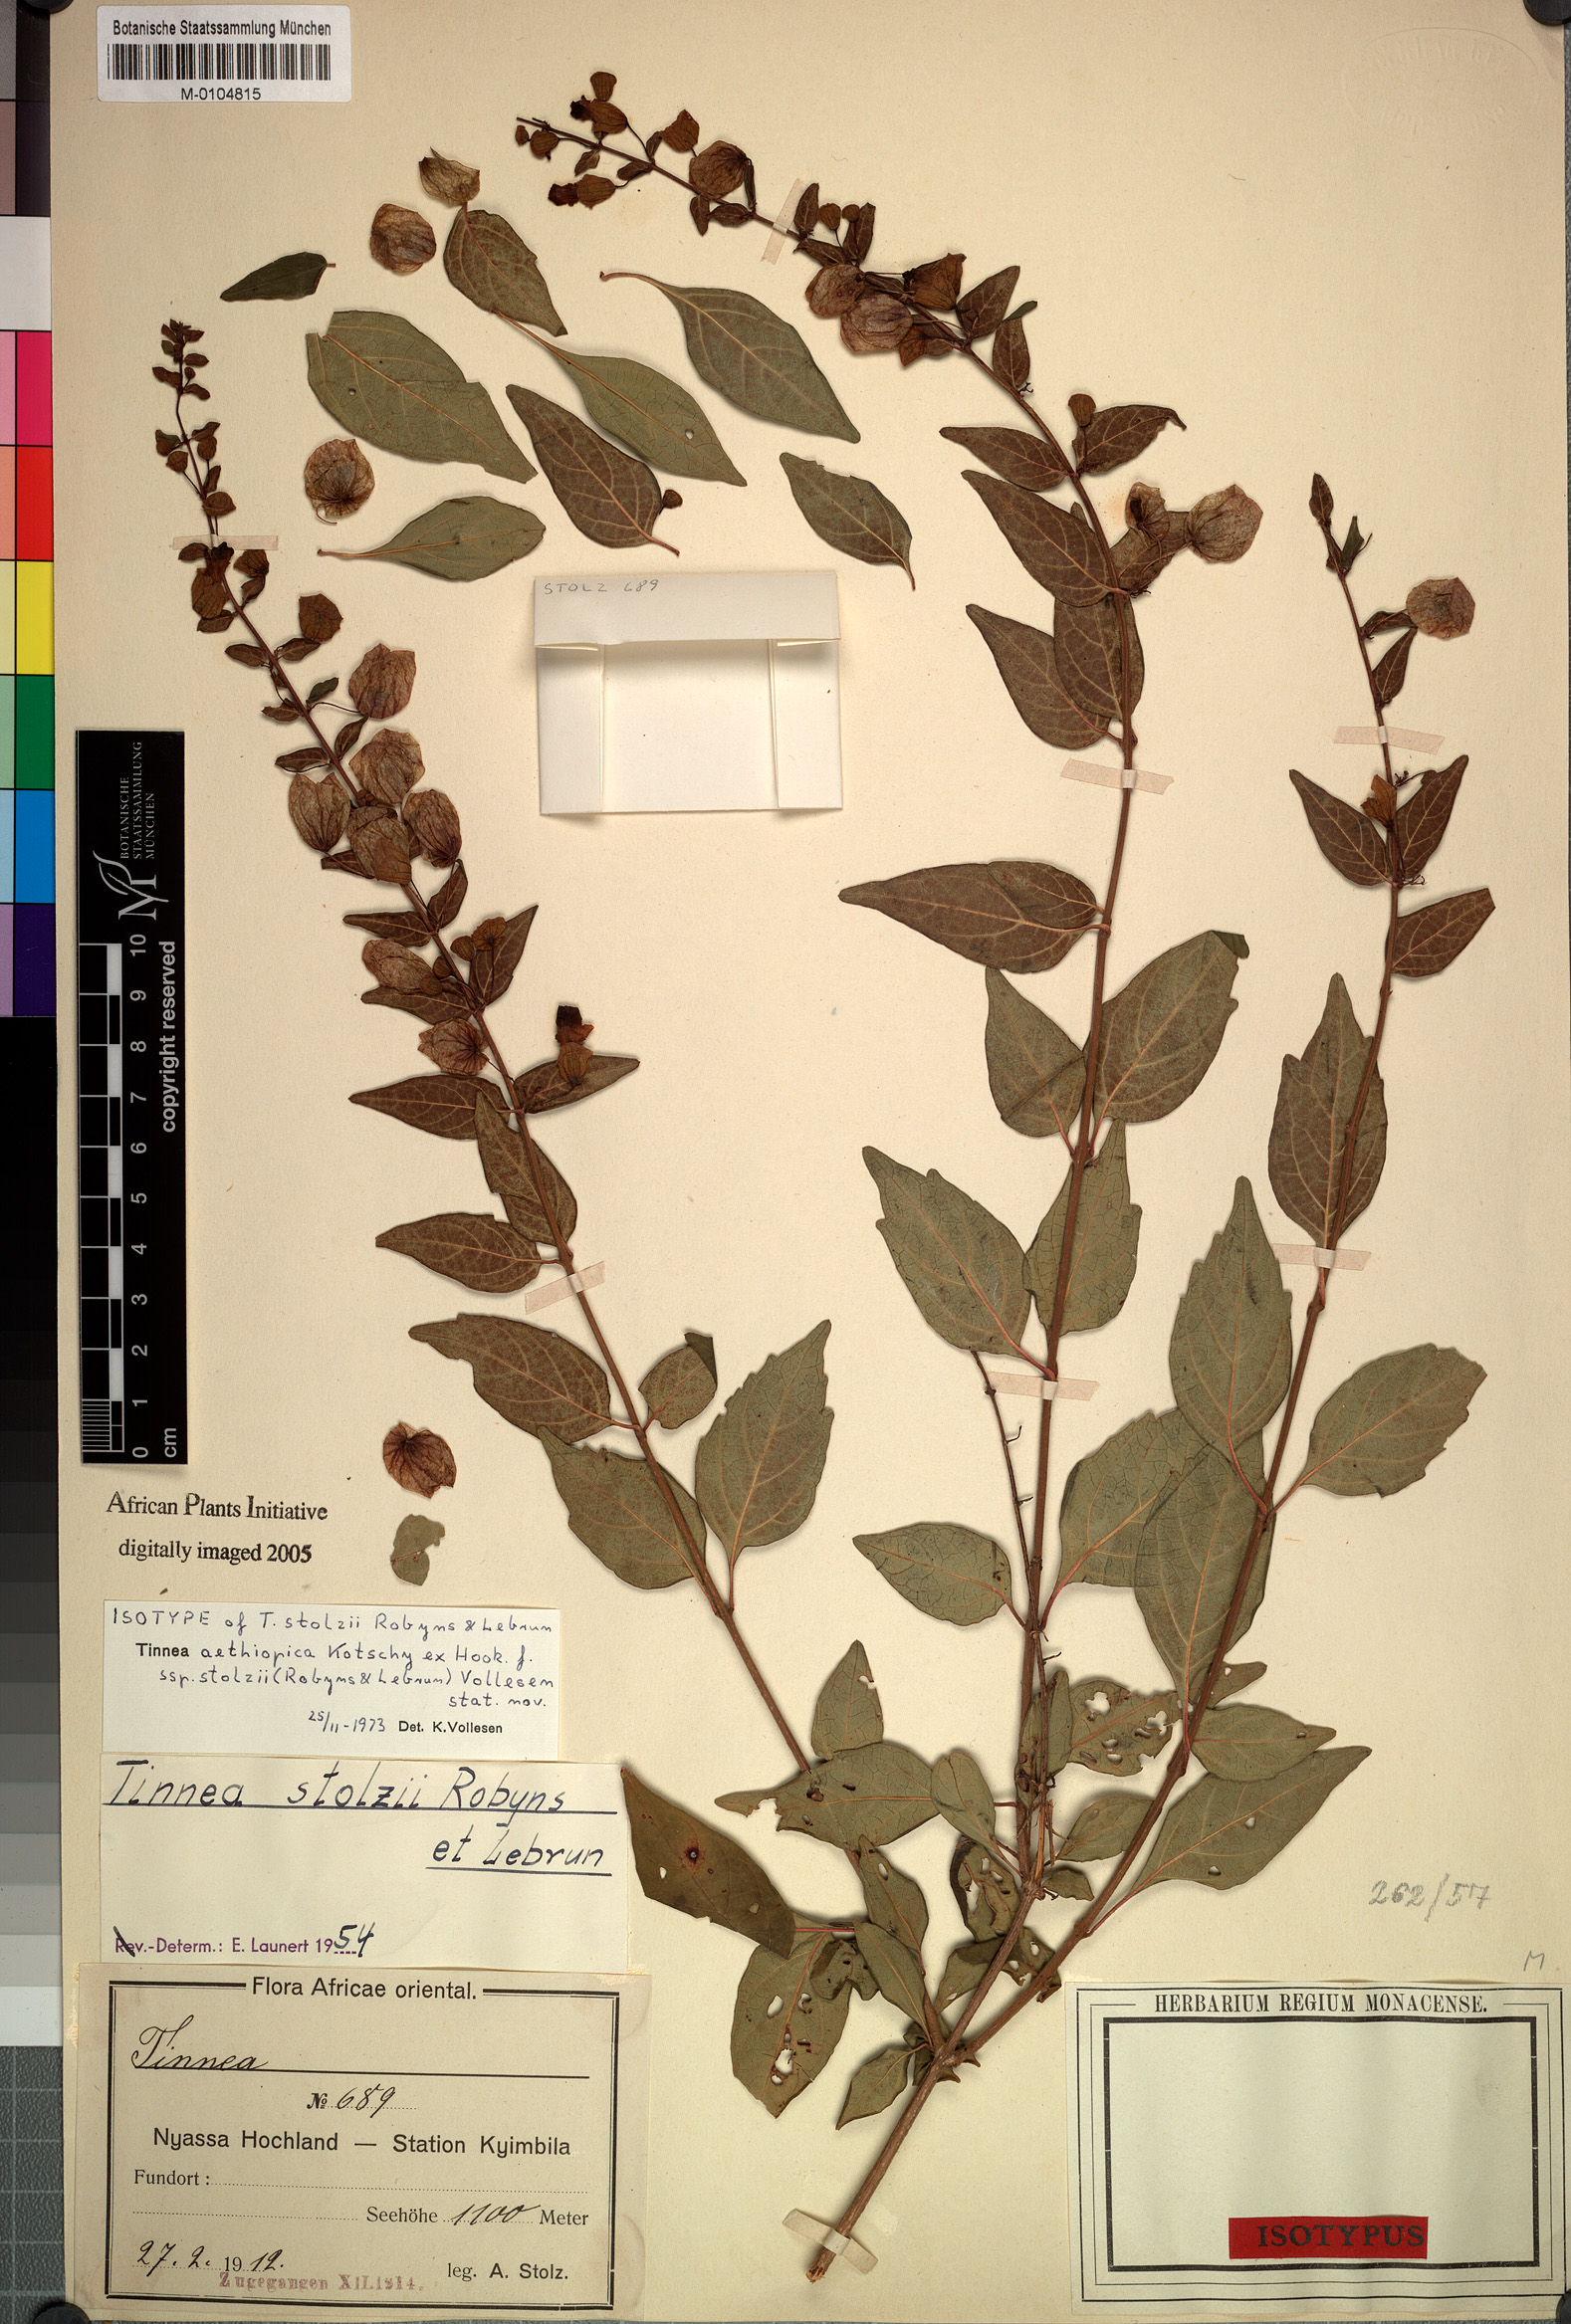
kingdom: Plantae
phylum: Tracheophyta
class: Magnoliopsida
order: Lamiales
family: Lamiaceae
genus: Tinnea
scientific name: Tinnea aethiopica
